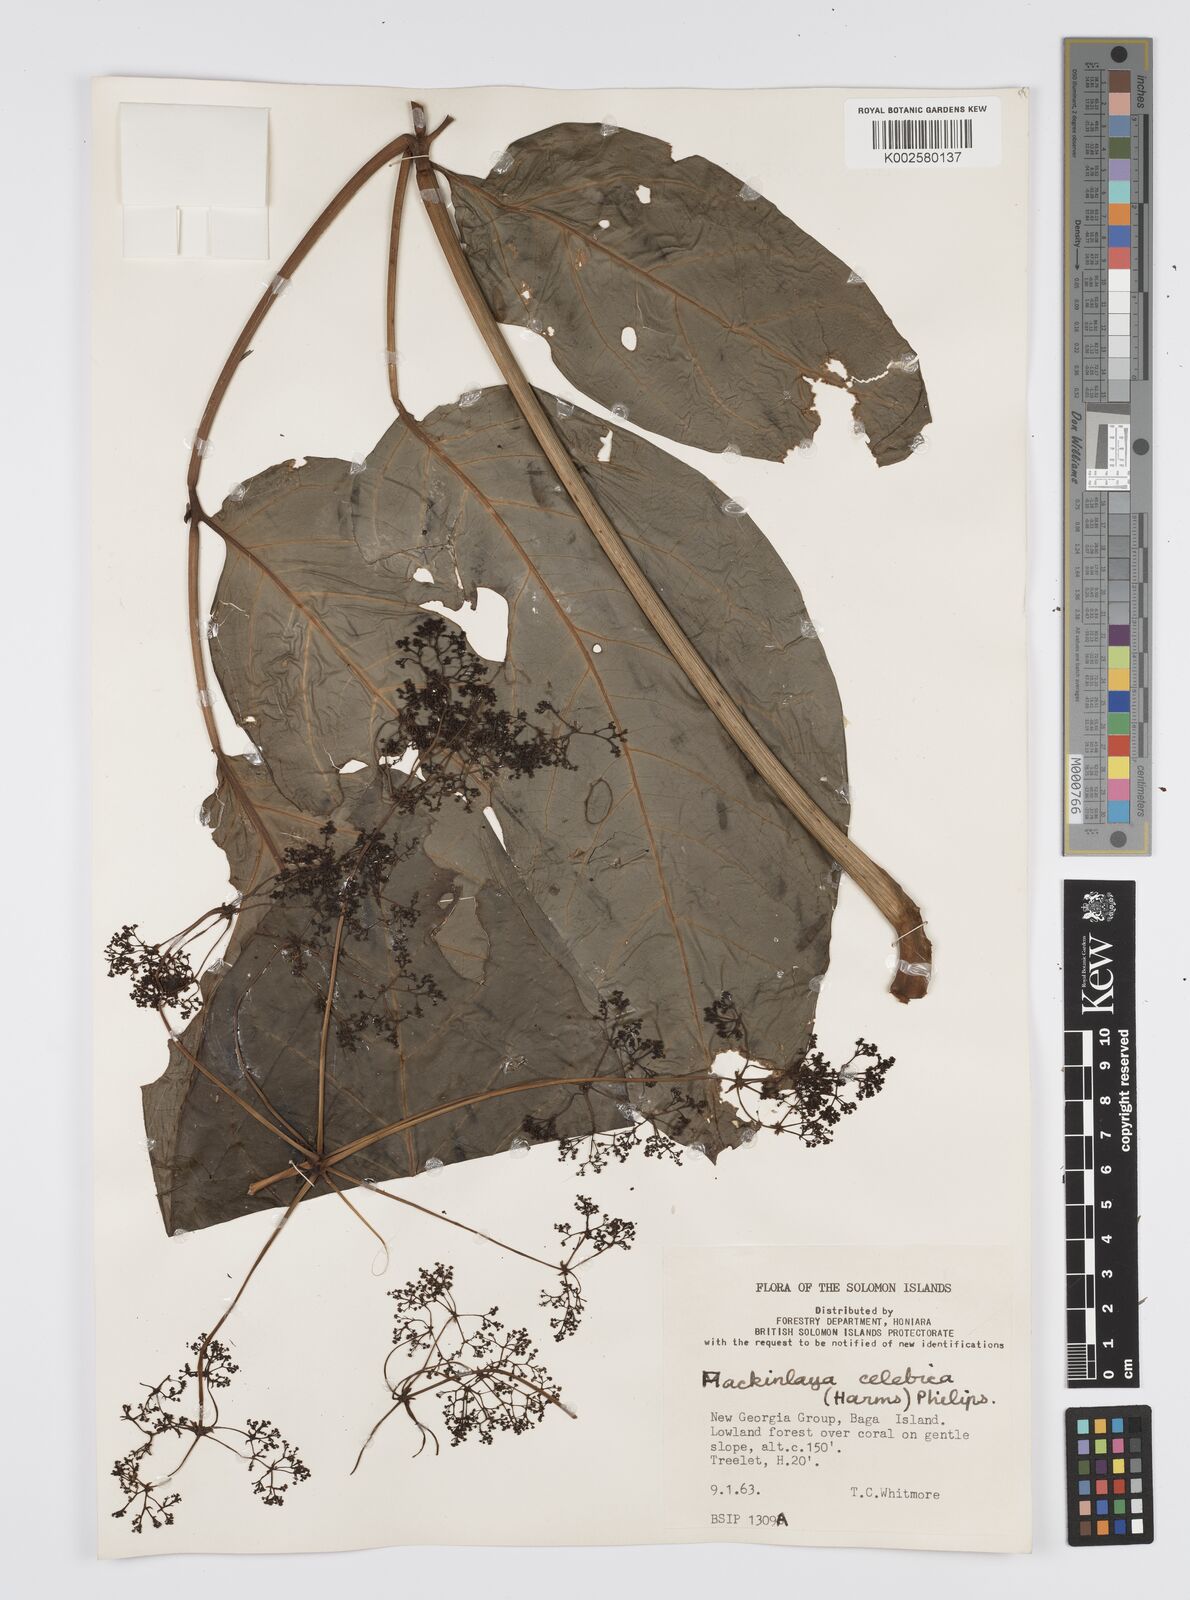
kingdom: Plantae
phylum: Tracheophyta
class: Magnoliopsida
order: Apiales
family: Apiaceae
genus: Mackinlaya
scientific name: Mackinlaya celebica
